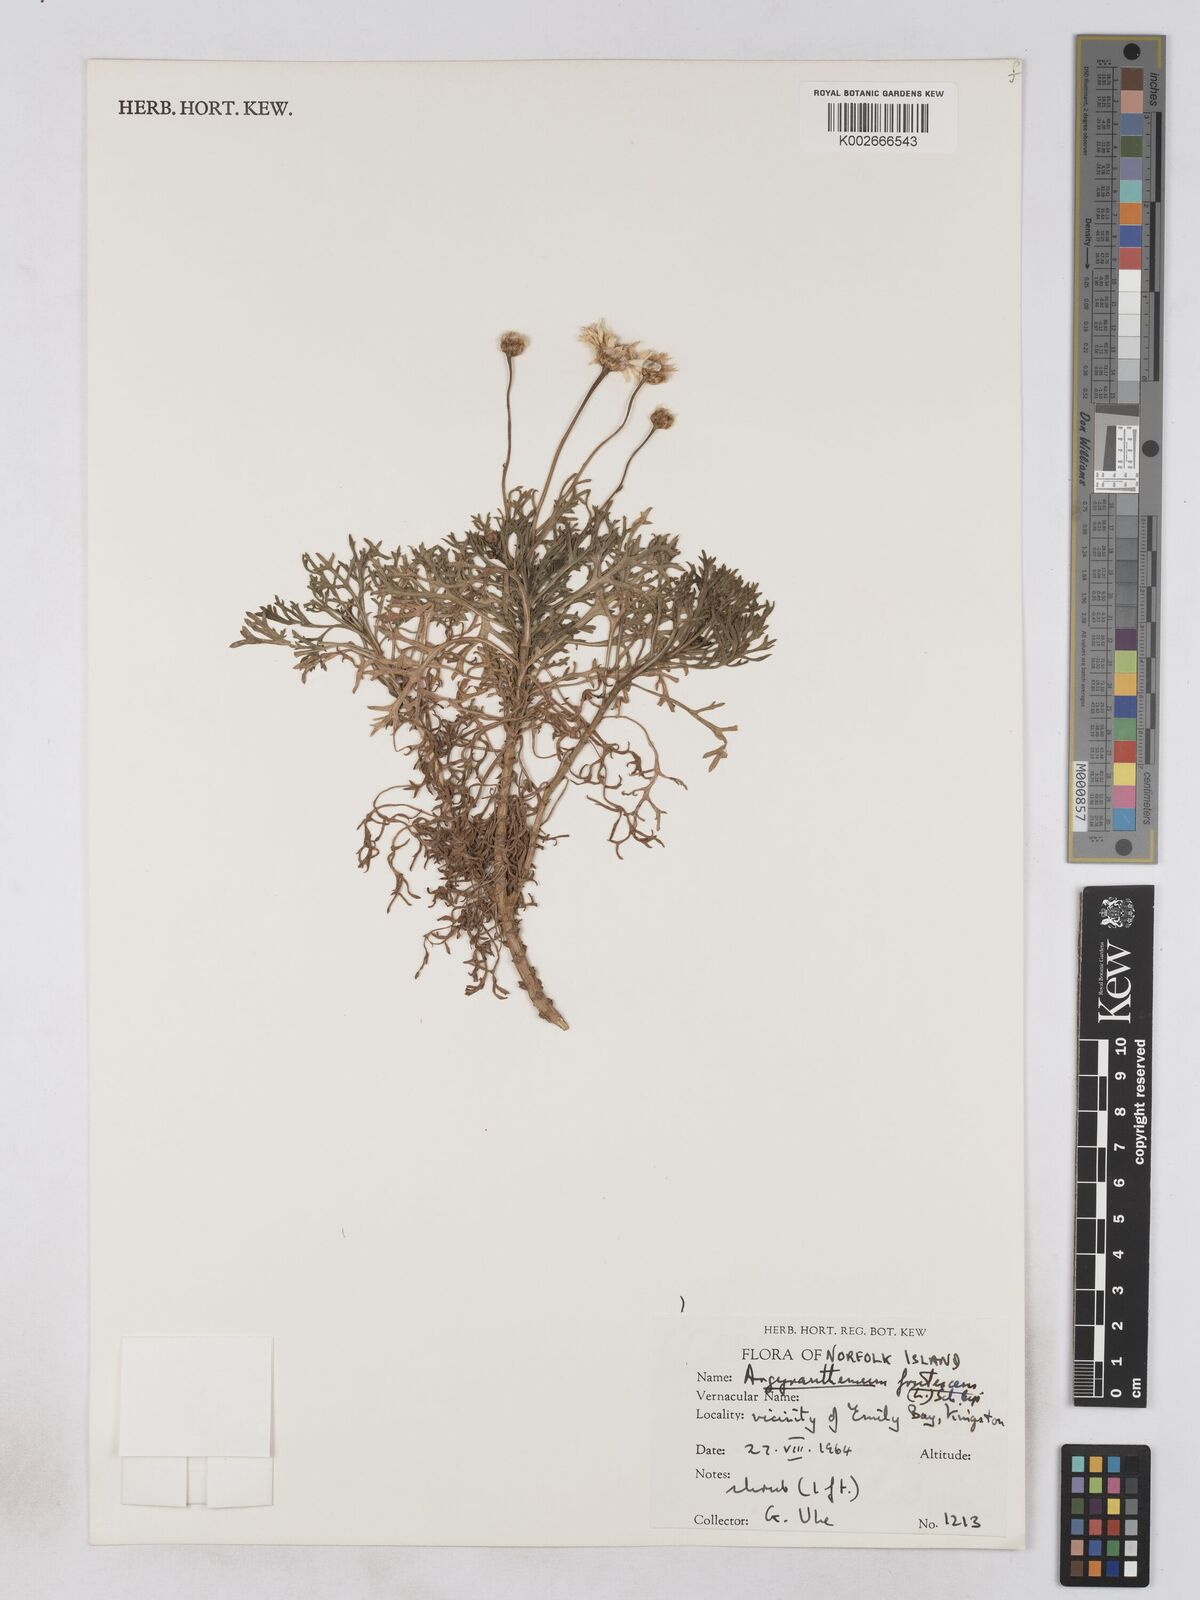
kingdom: Plantae
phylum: Tracheophyta
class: Magnoliopsida
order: Asterales
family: Asteraceae
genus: Argyranthemum
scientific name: Argyranthemum frutescens
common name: Paris daisy
